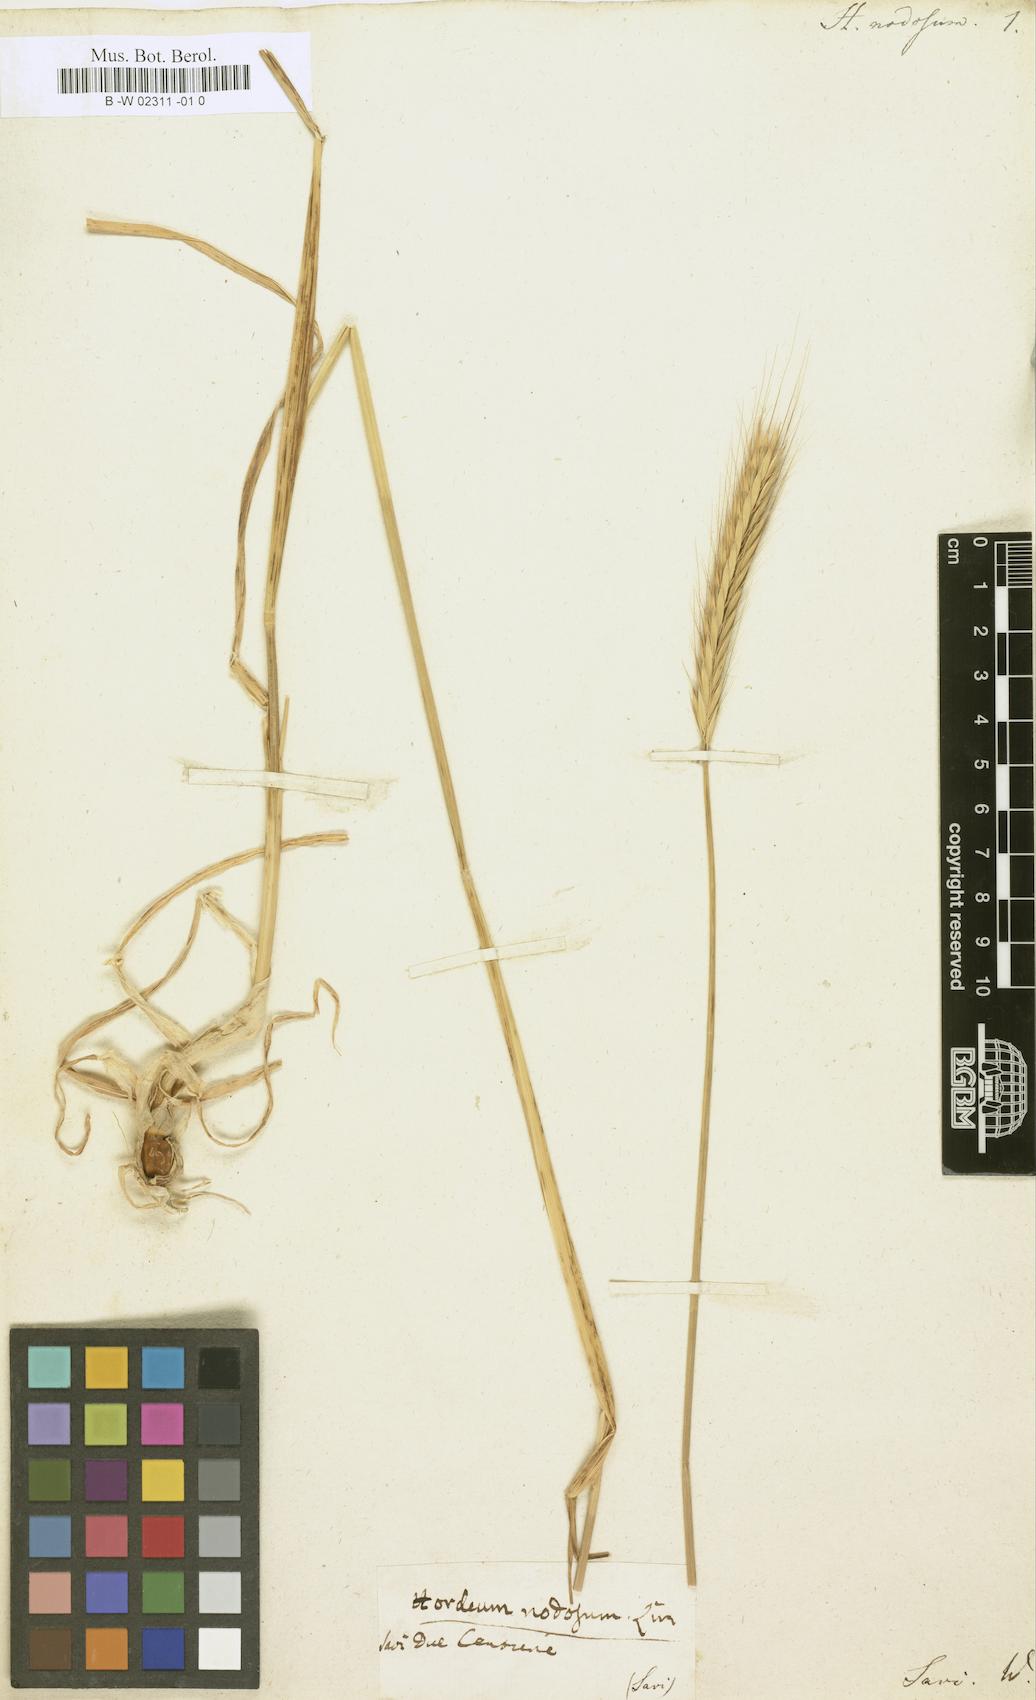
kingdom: Plantae
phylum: Tracheophyta
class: Liliopsida
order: Poales
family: Poaceae
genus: Hordeum
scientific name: Hordeum
